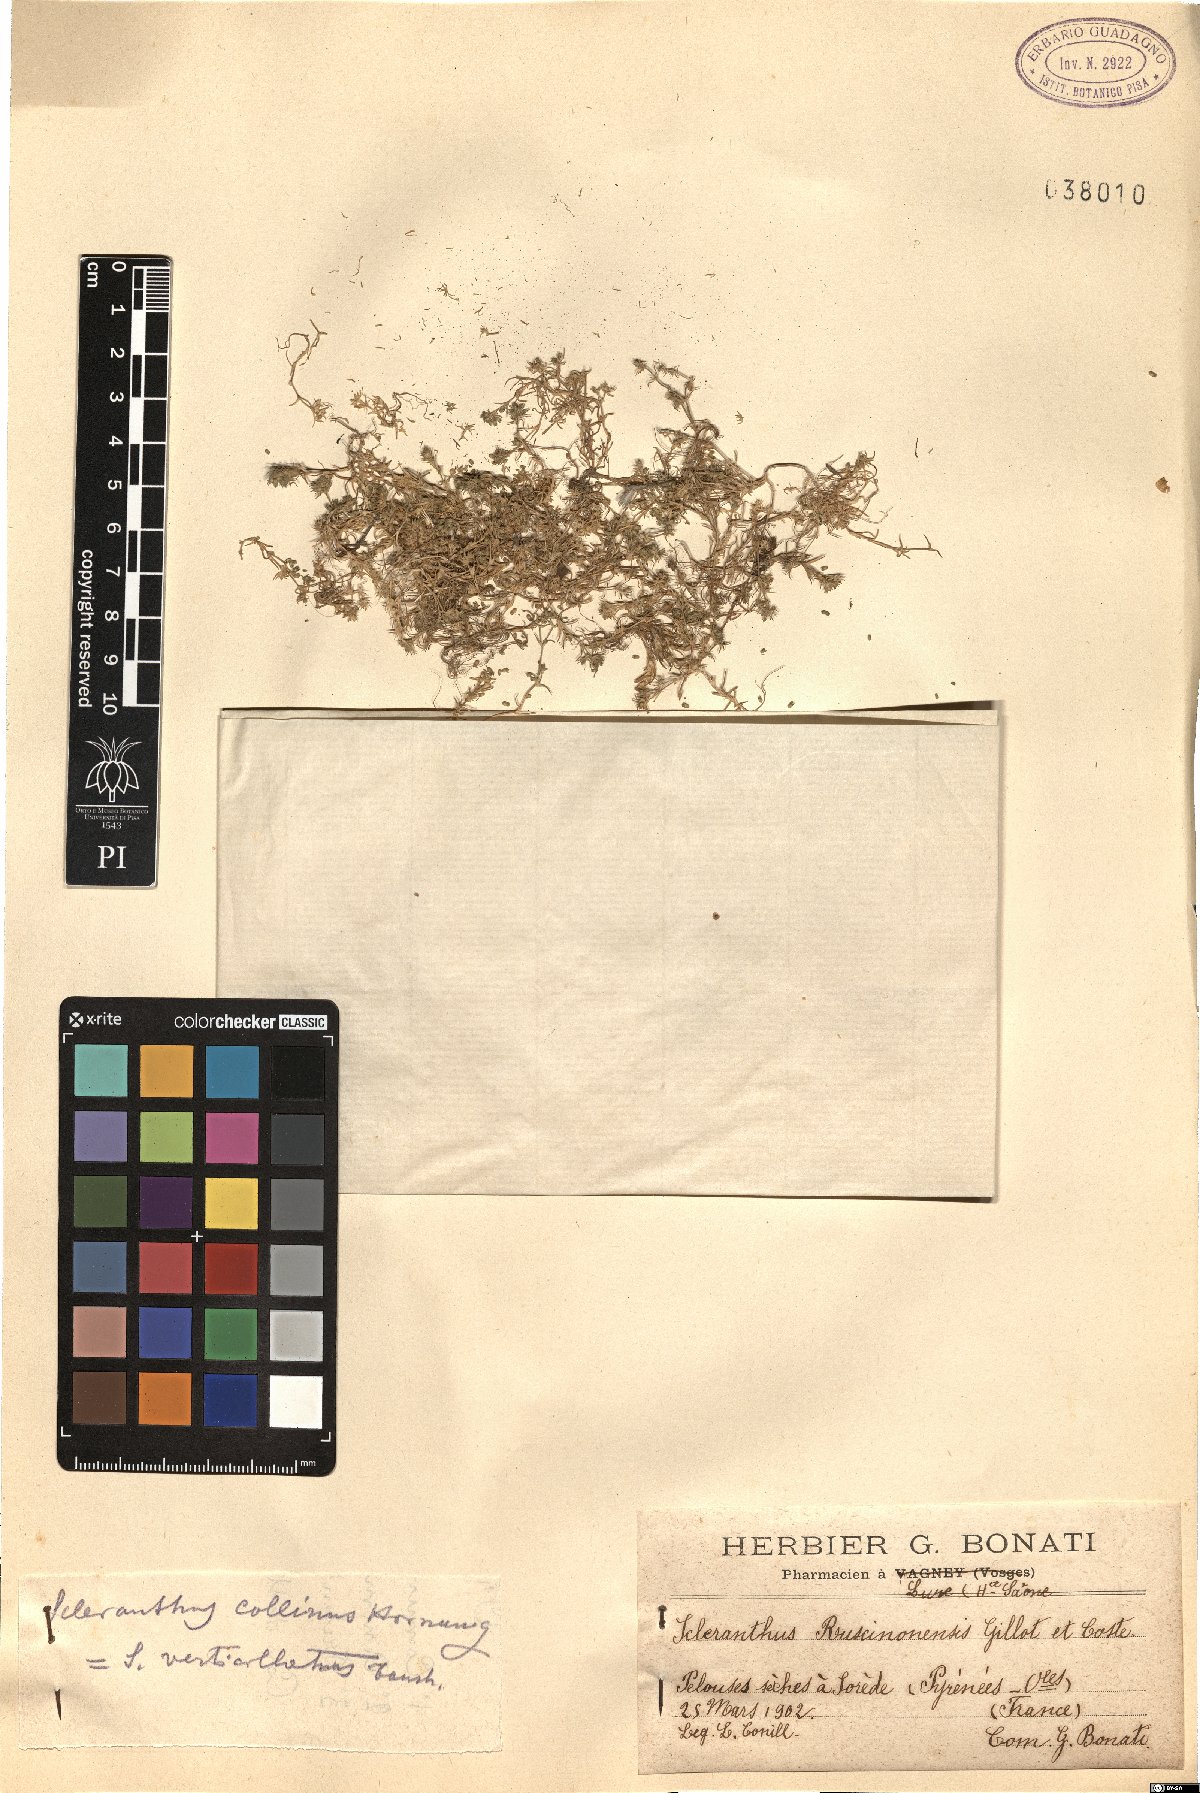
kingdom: Plantae
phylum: Tracheophyta
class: Magnoliopsida
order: Caryophyllales
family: Caryophyllaceae
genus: Scleranthus
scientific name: Scleranthus delortii
